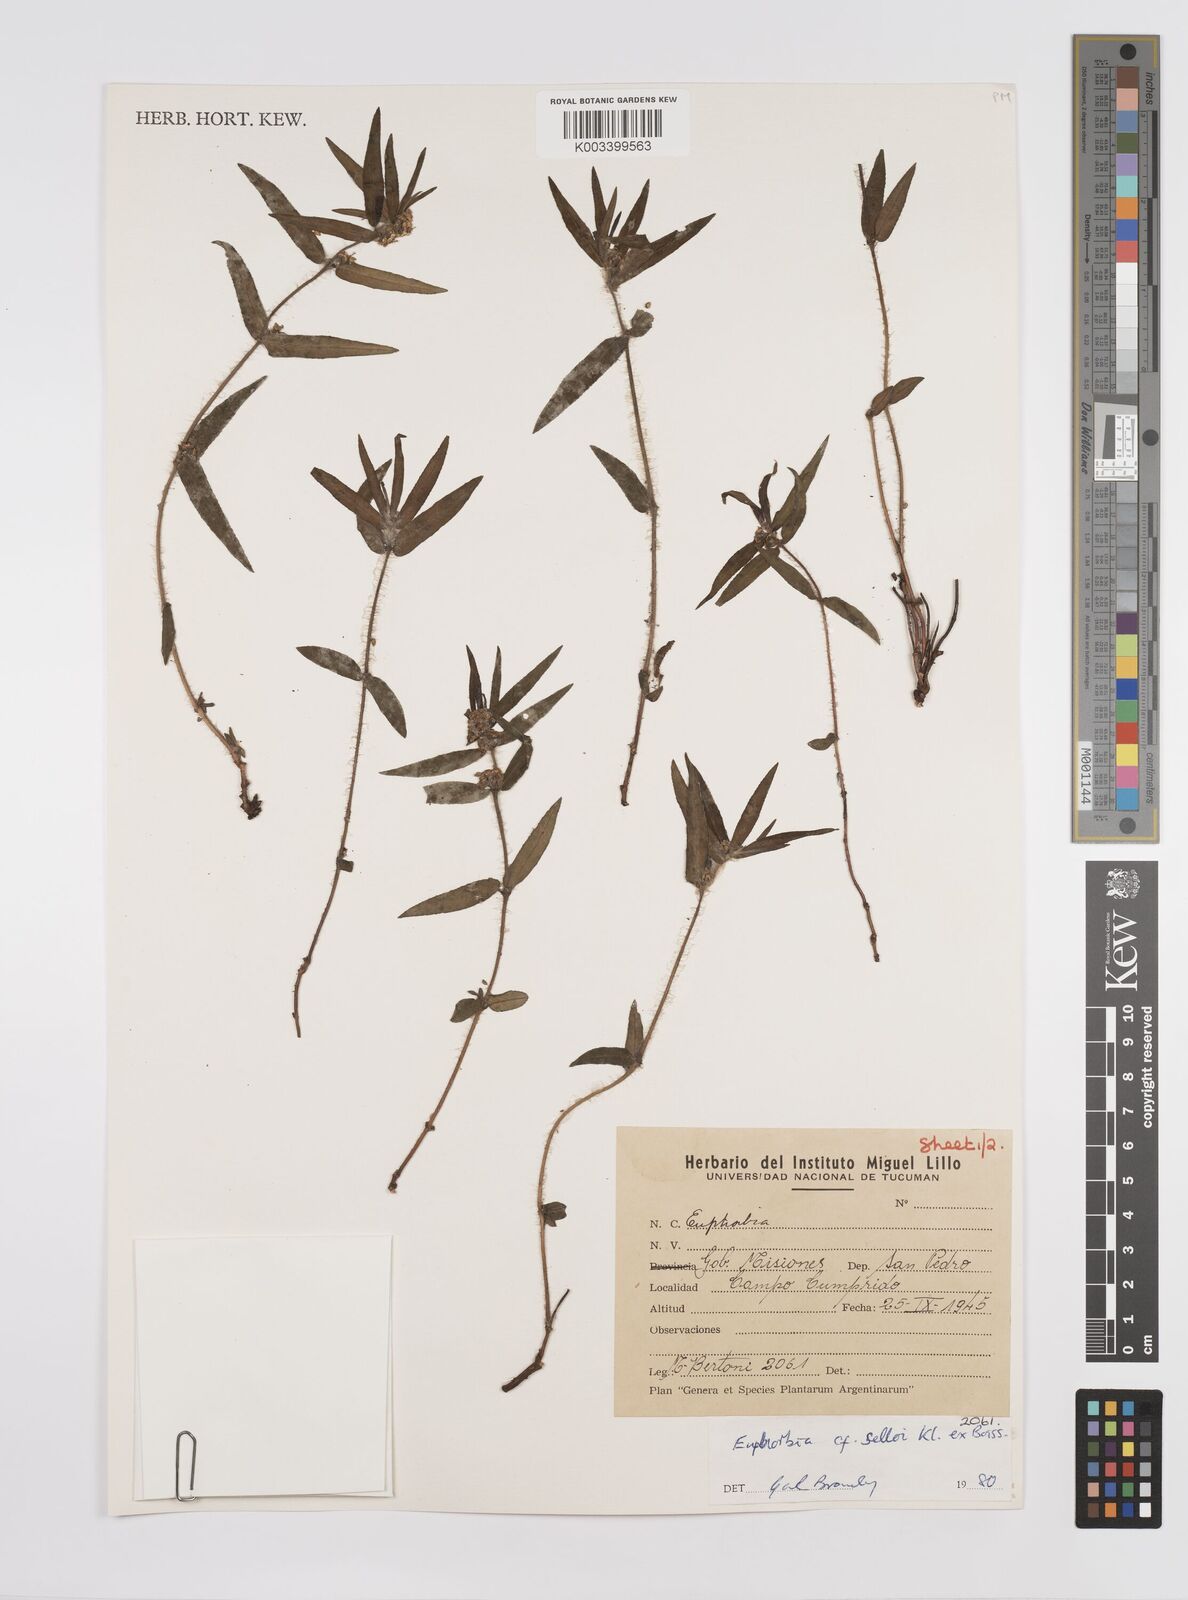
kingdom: Plantae
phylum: Tracheophyta
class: Magnoliopsida
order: Malpighiales
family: Euphorbiaceae
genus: Euphorbia
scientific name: Euphorbia selloi
